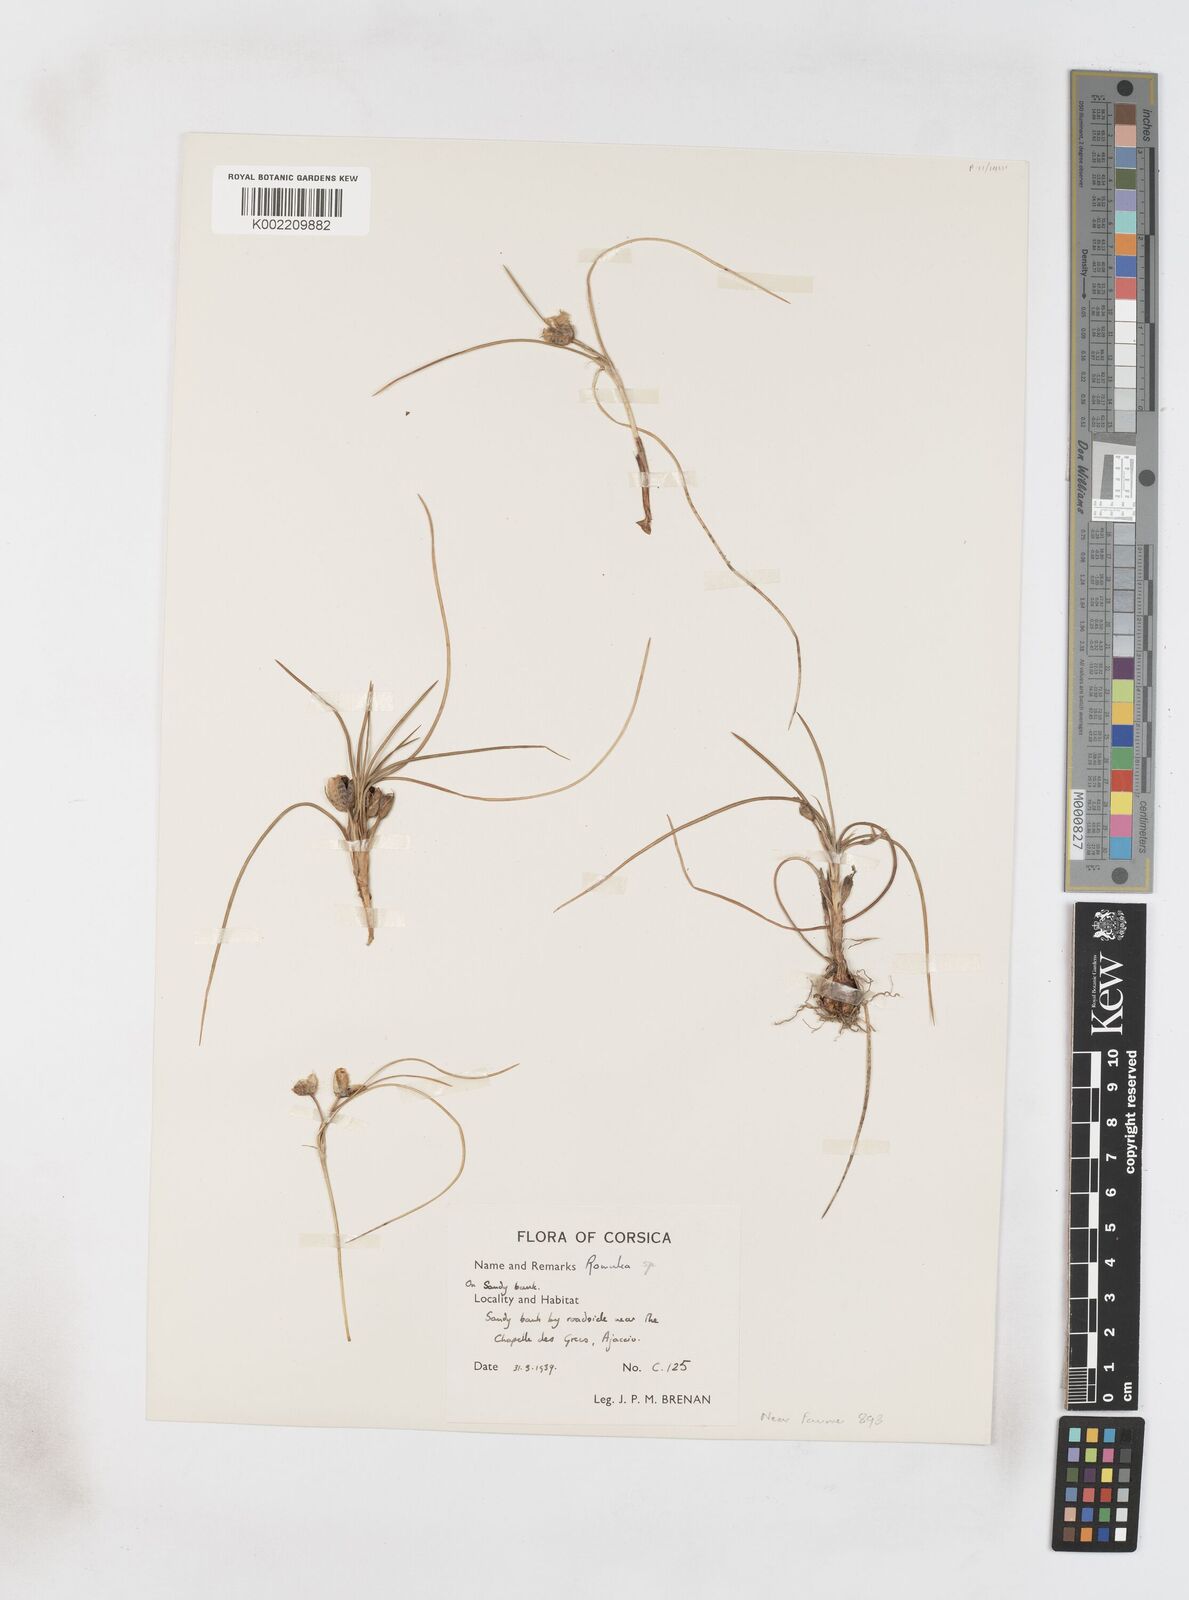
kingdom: Plantae
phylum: Tracheophyta
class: Liliopsida
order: Asparagales
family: Iridaceae
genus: Romulea
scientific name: Romulea
